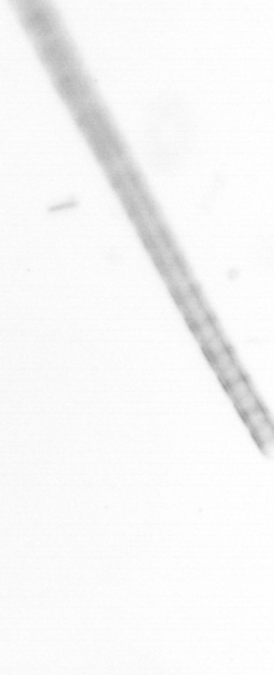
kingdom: Chromista
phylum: Ochrophyta
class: Bacillariophyceae
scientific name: Bacillariophyceae
